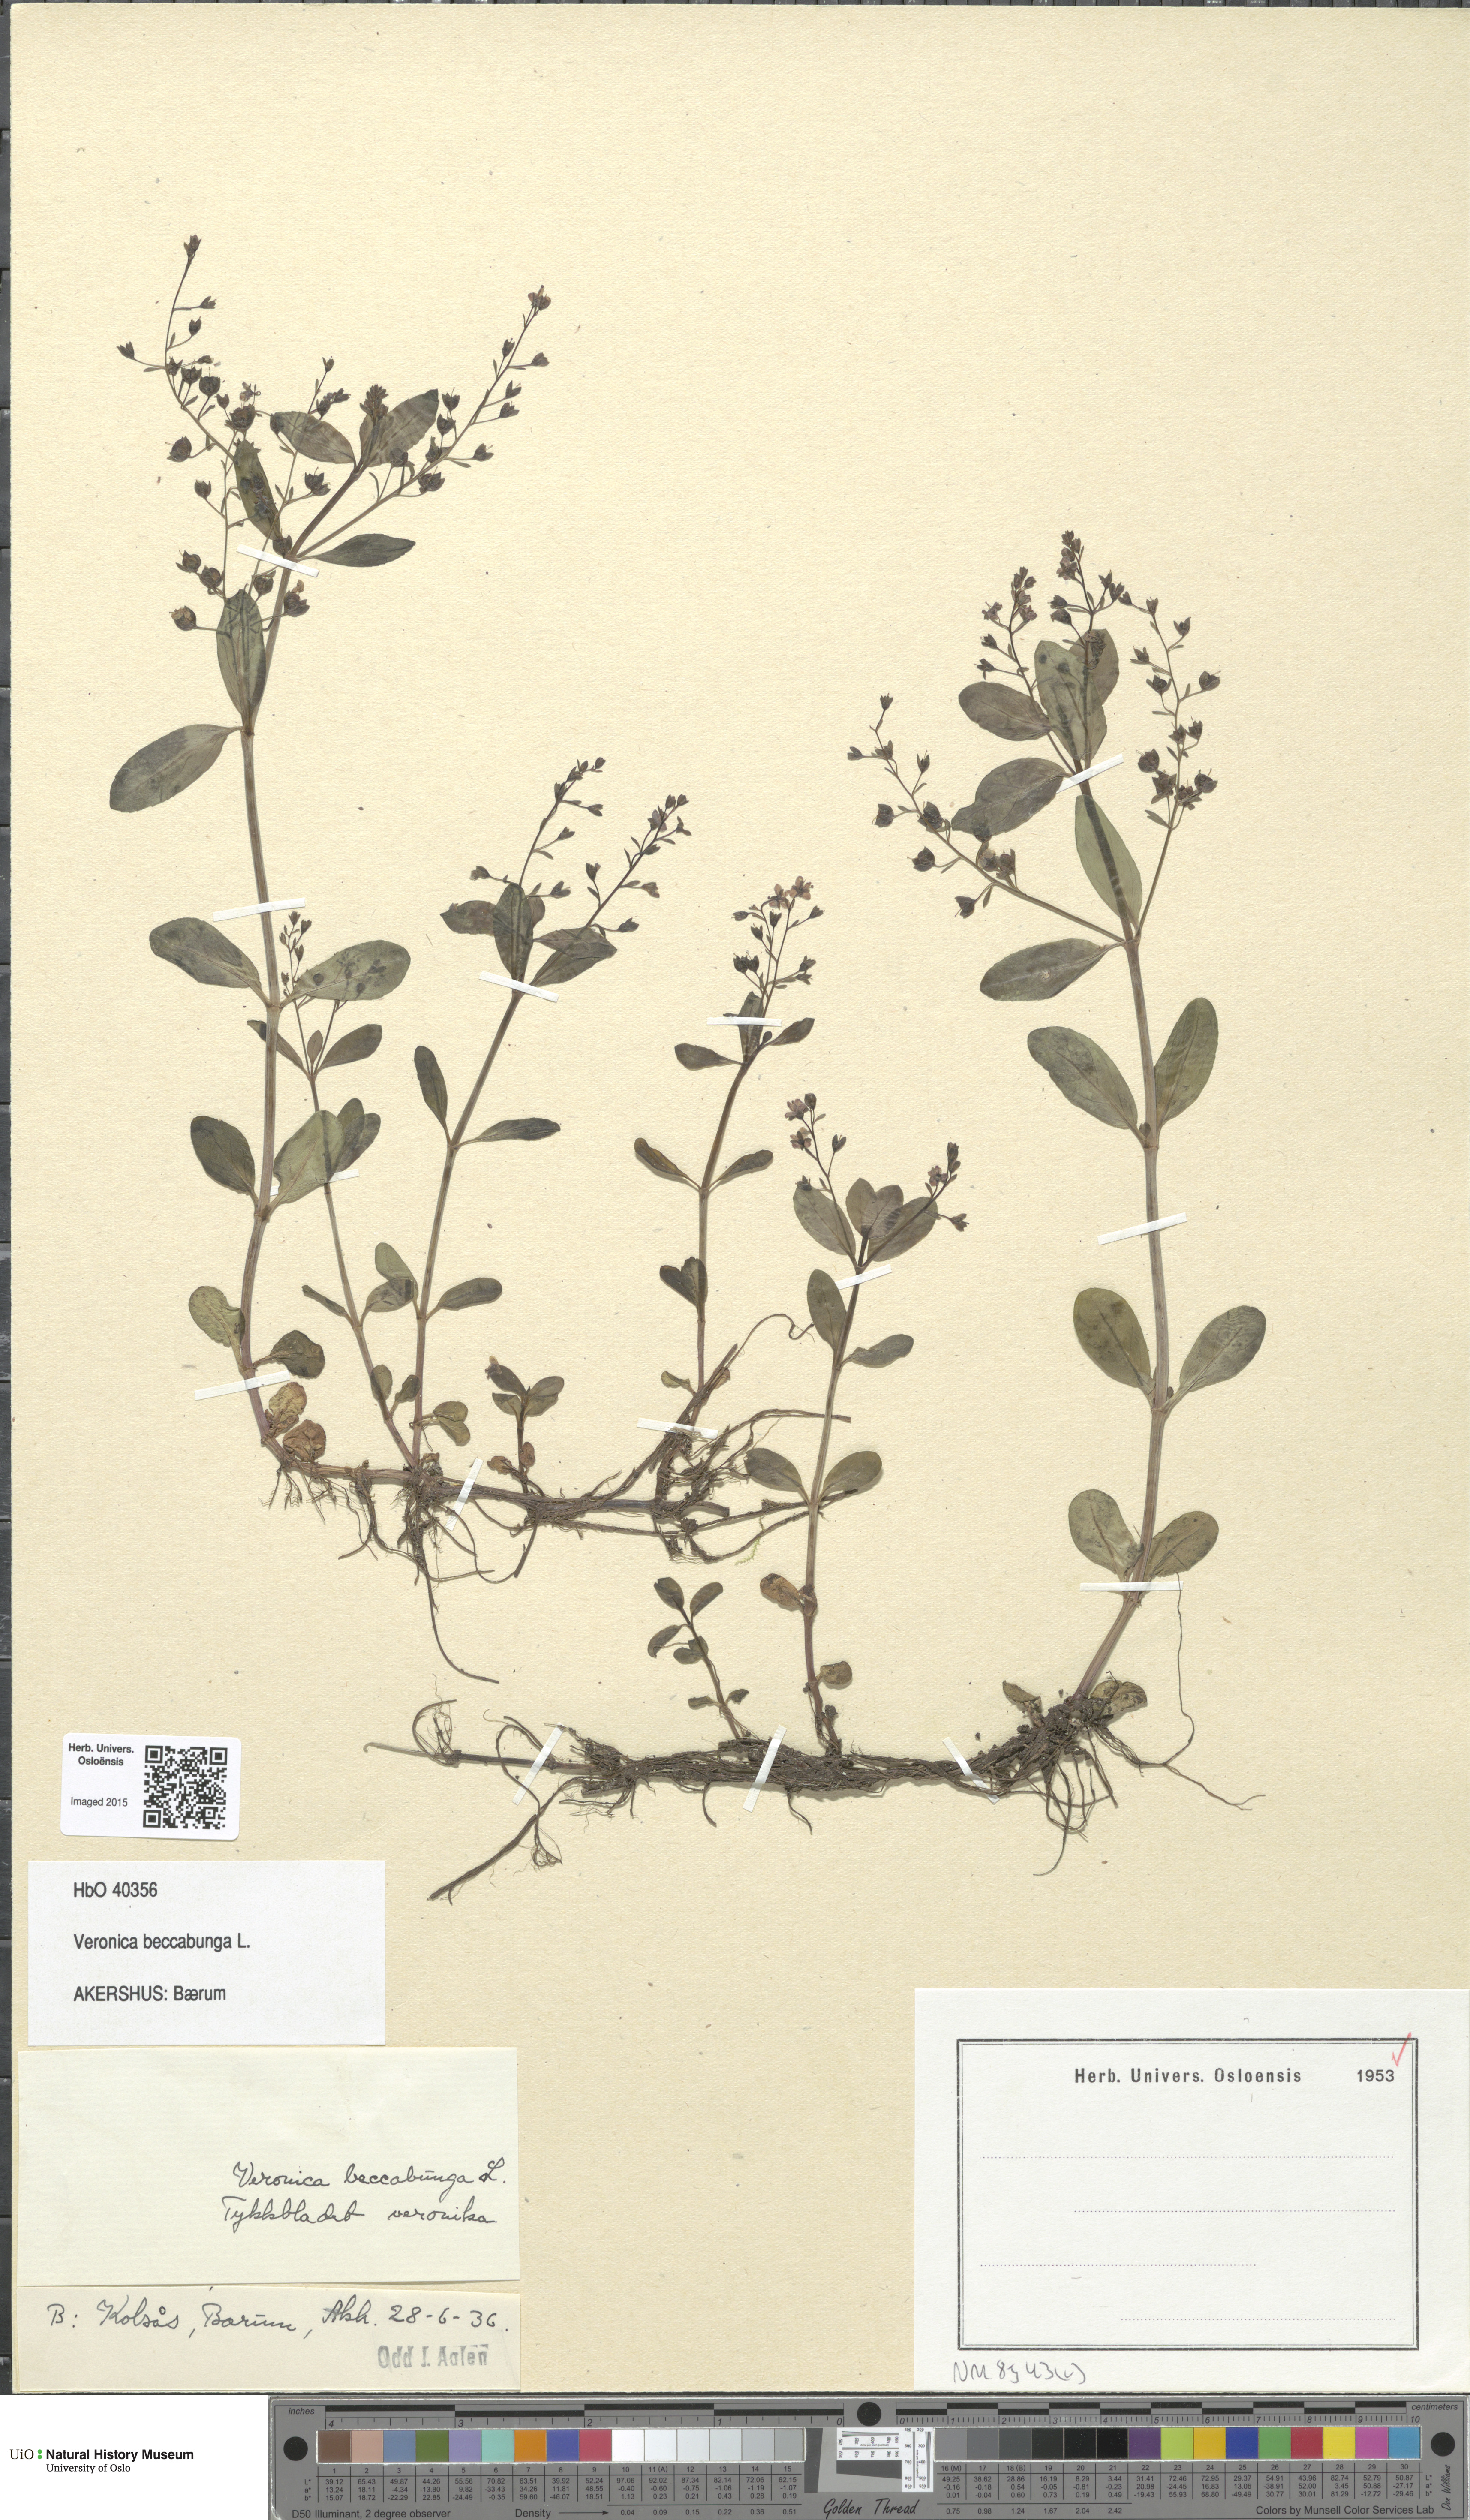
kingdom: Plantae
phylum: Tracheophyta
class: Magnoliopsida
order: Lamiales
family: Plantaginaceae
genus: Veronica
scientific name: Veronica beccabunga
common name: Brooklime
